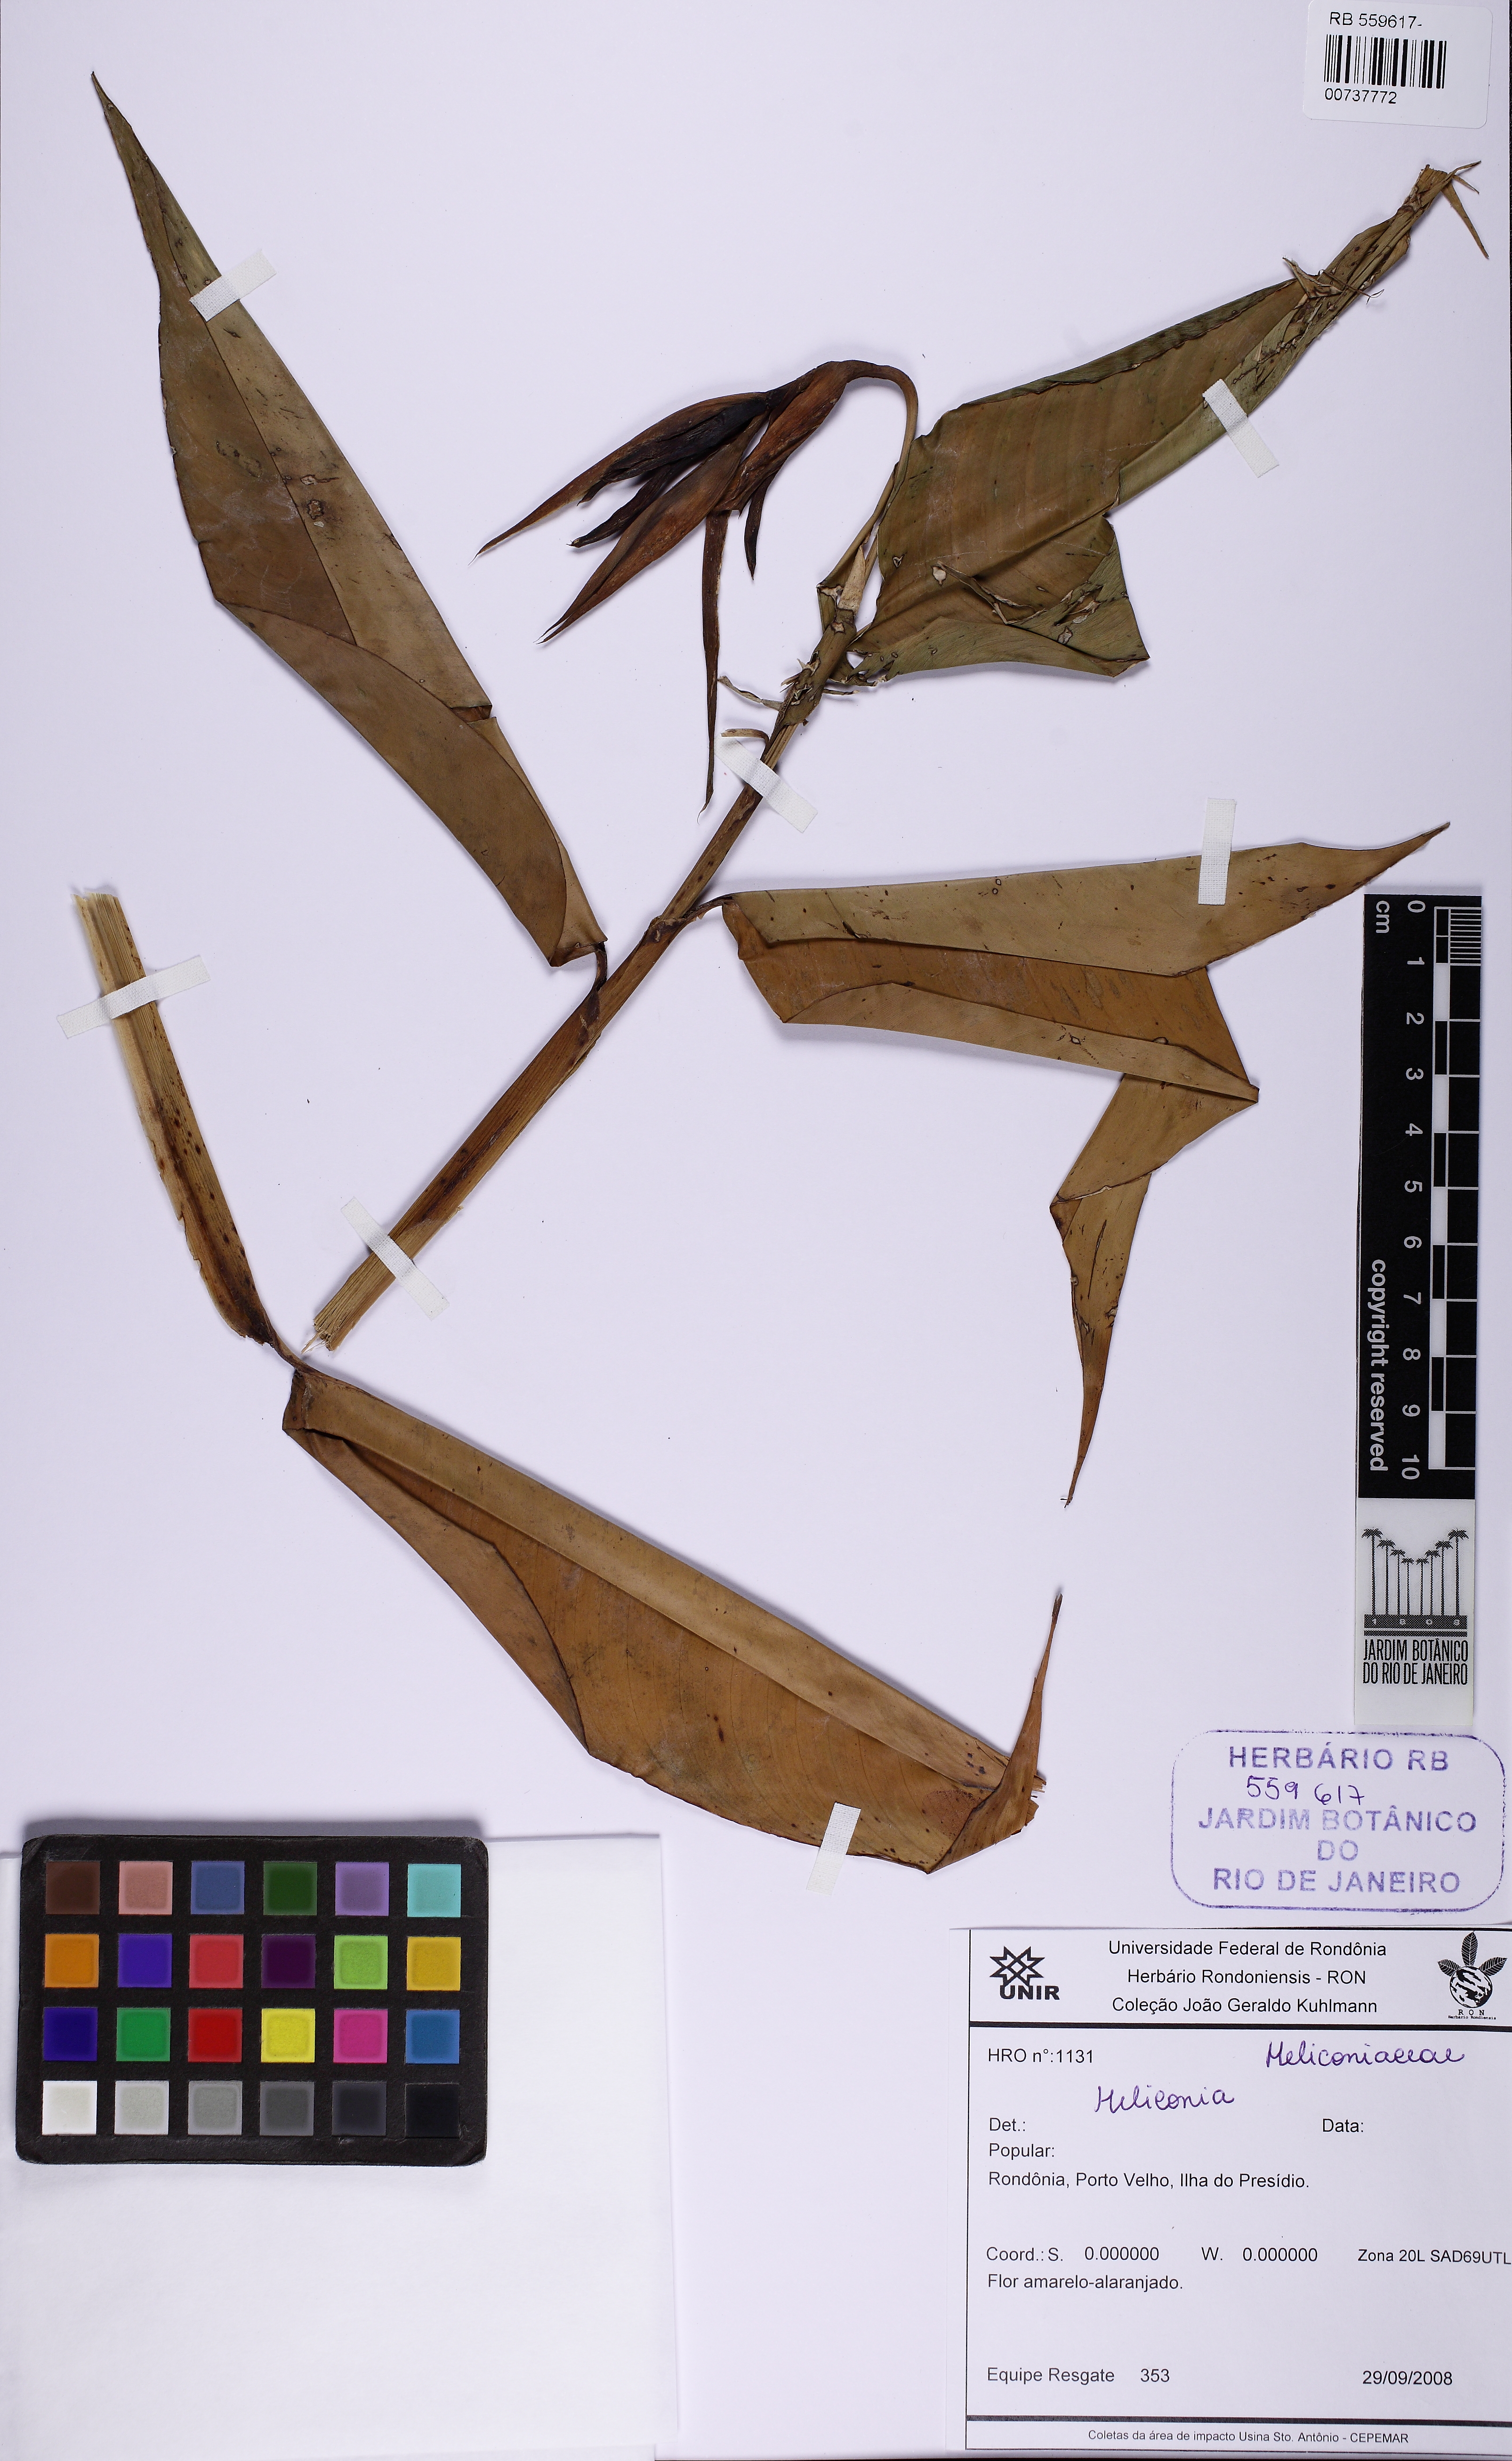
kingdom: Plantae
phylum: Tracheophyta
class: Liliopsida
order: Zingiberales
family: Heliconiaceae
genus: Heliconia
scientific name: Heliconia hirsuta
